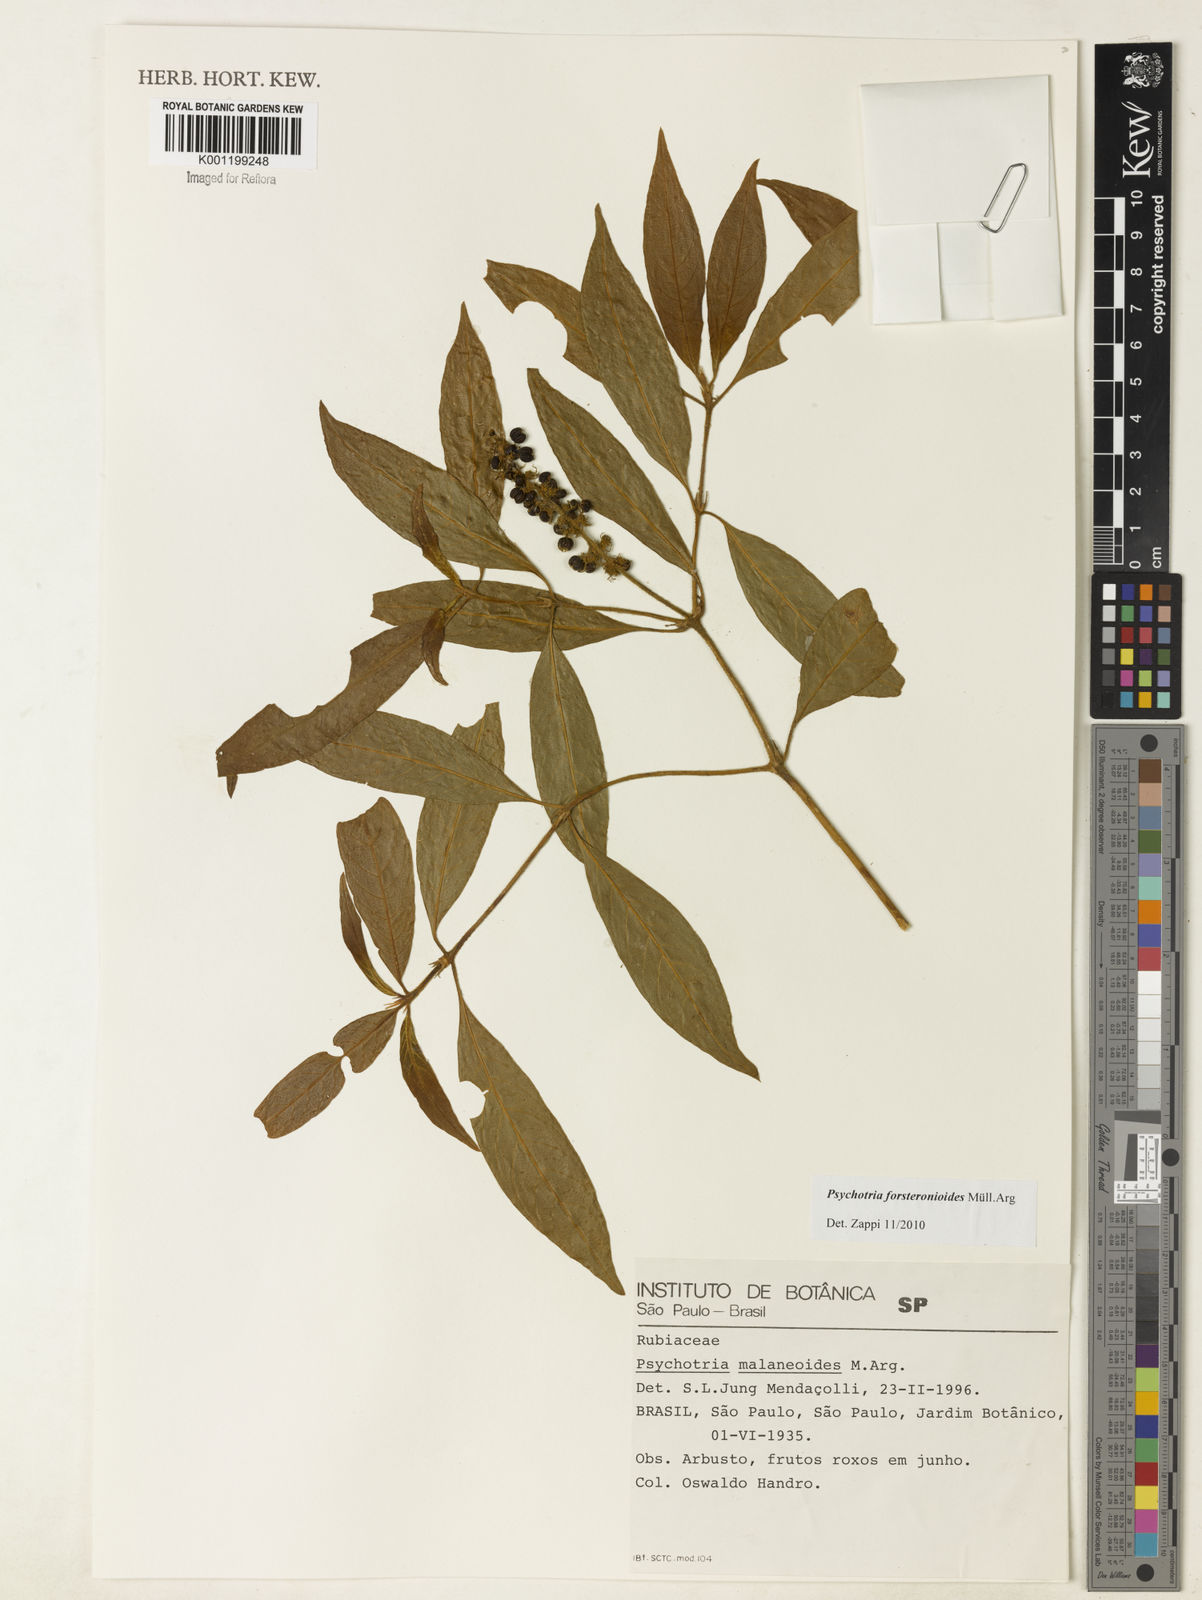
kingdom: Plantae
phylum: Tracheophyta
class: Magnoliopsida
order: Gentianales
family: Rubiaceae
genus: Psychotria
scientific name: Psychotria
